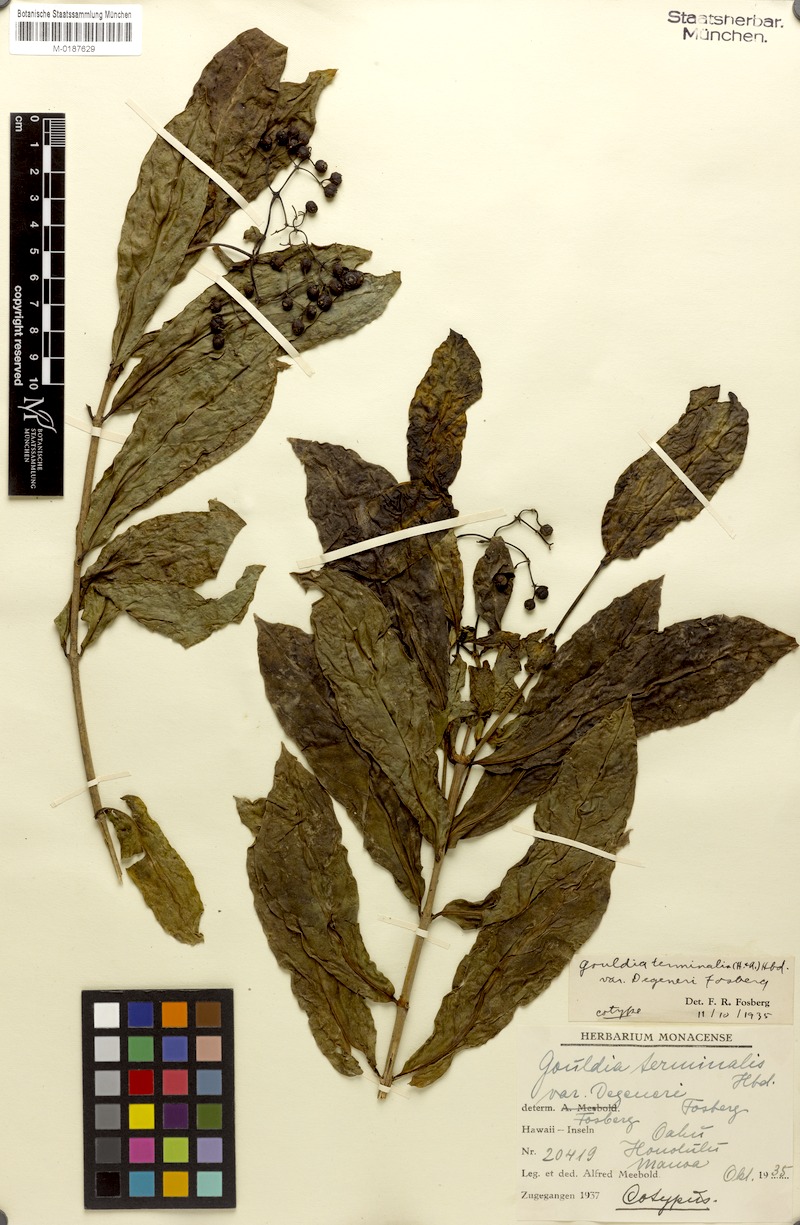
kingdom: Plantae
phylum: Tracheophyta
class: Magnoliopsida
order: Gentianales
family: Rubiaceae
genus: Kadua
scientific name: Kadua affinis
